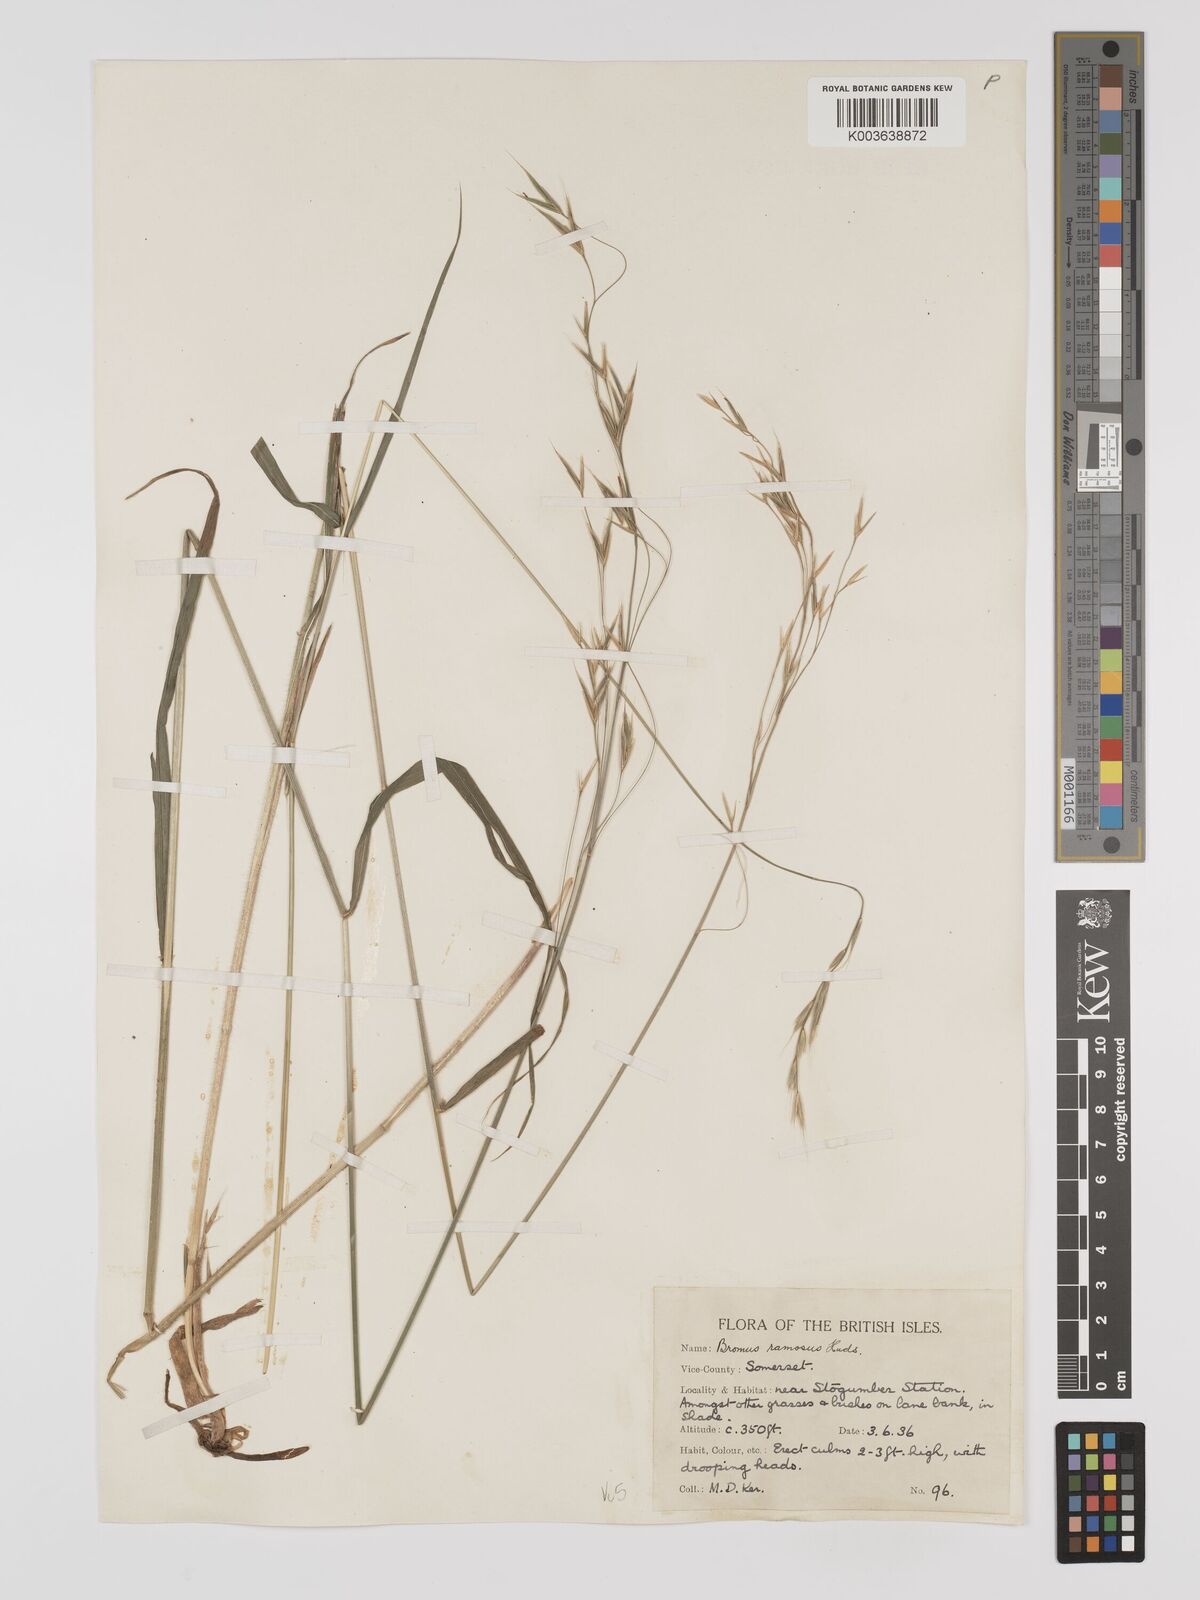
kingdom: Plantae
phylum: Tracheophyta
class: Liliopsida
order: Poales
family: Poaceae
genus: Brachypodium
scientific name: Brachypodium retusum
